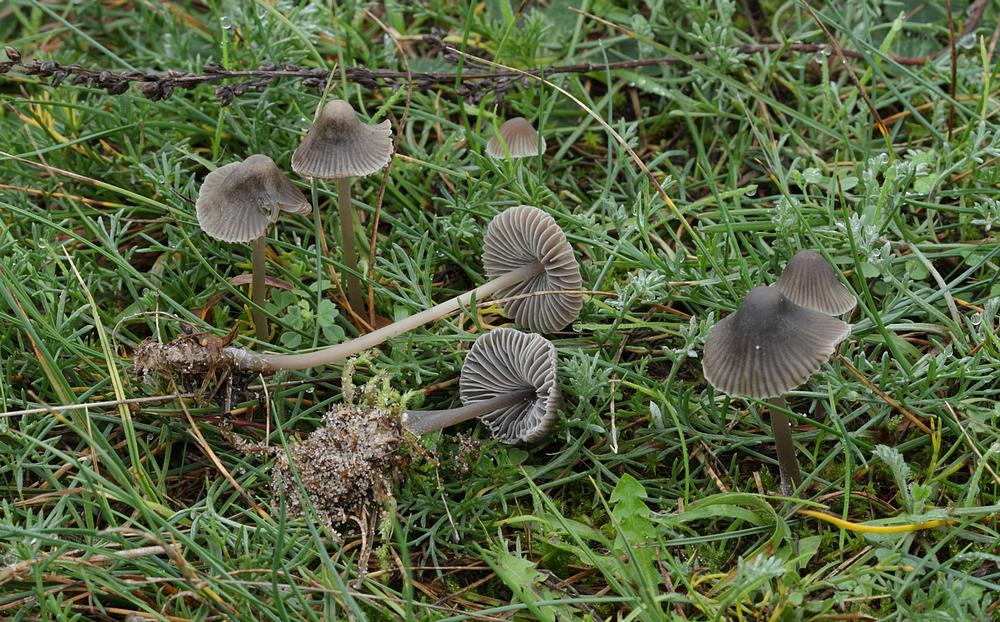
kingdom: Fungi
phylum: Basidiomycota
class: Agaricomycetes
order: Agaricales
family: Mycenaceae
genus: Mycena
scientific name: Mycena aetites
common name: plæne-huesvamp
